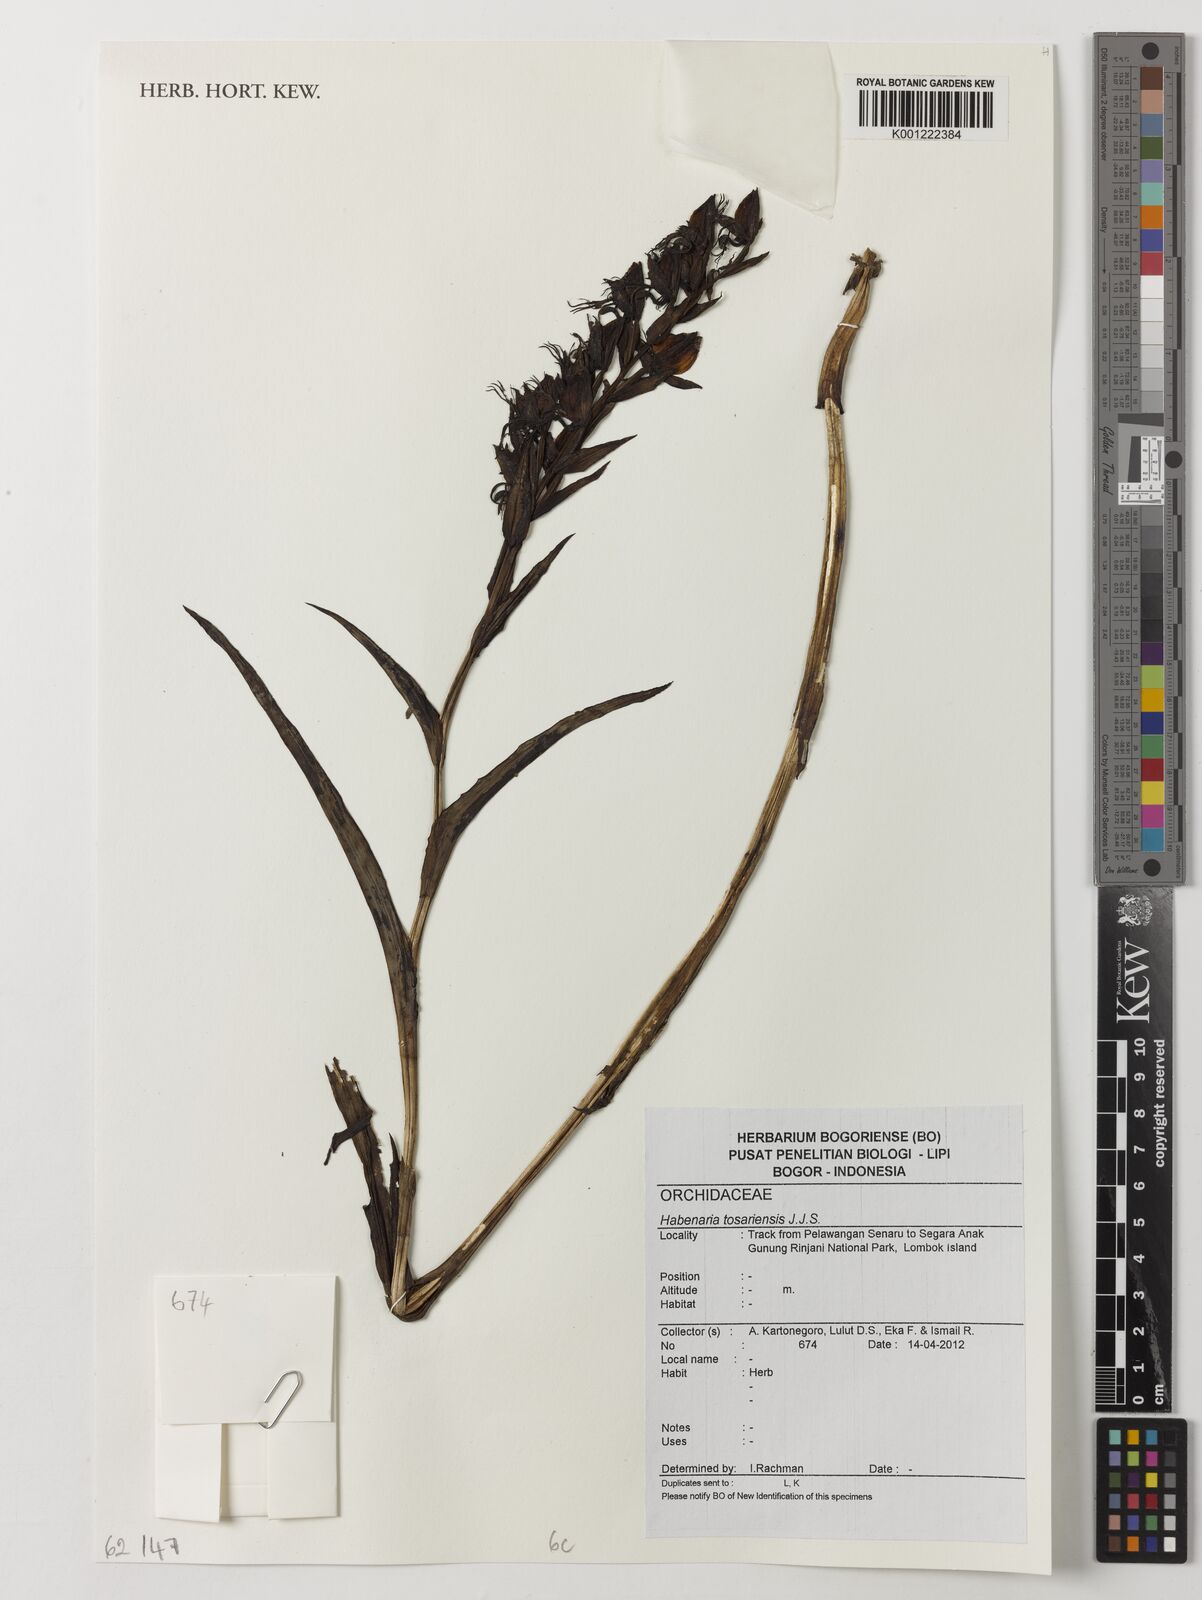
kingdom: Plantae
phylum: Tracheophyta
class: Liliopsida
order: Asparagales
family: Orchidaceae
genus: Habenaria
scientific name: Habenaria tosariensis
